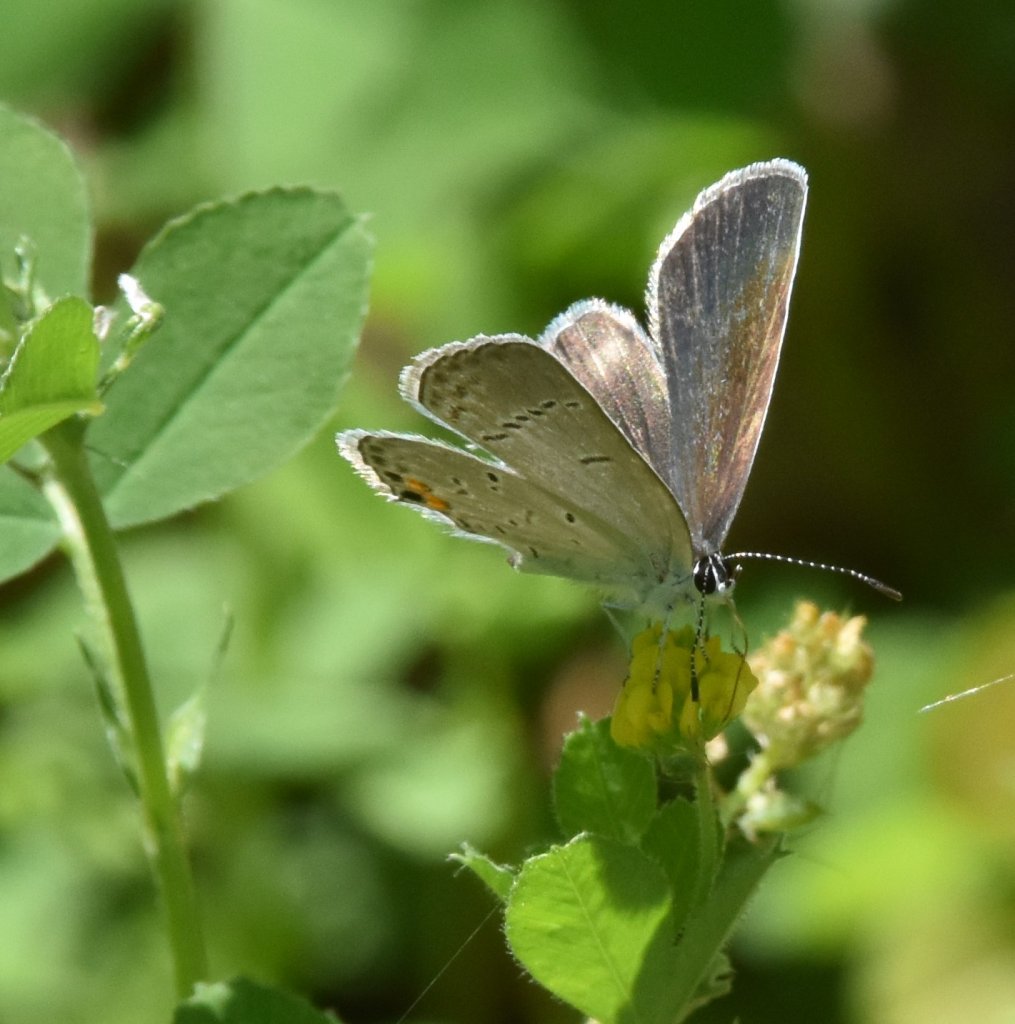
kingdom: Animalia
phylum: Arthropoda
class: Insecta
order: Lepidoptera
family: Lycaenidae
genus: Elkalyce
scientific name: Elkalyce comyntas
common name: Eastern Tailed-Blue
